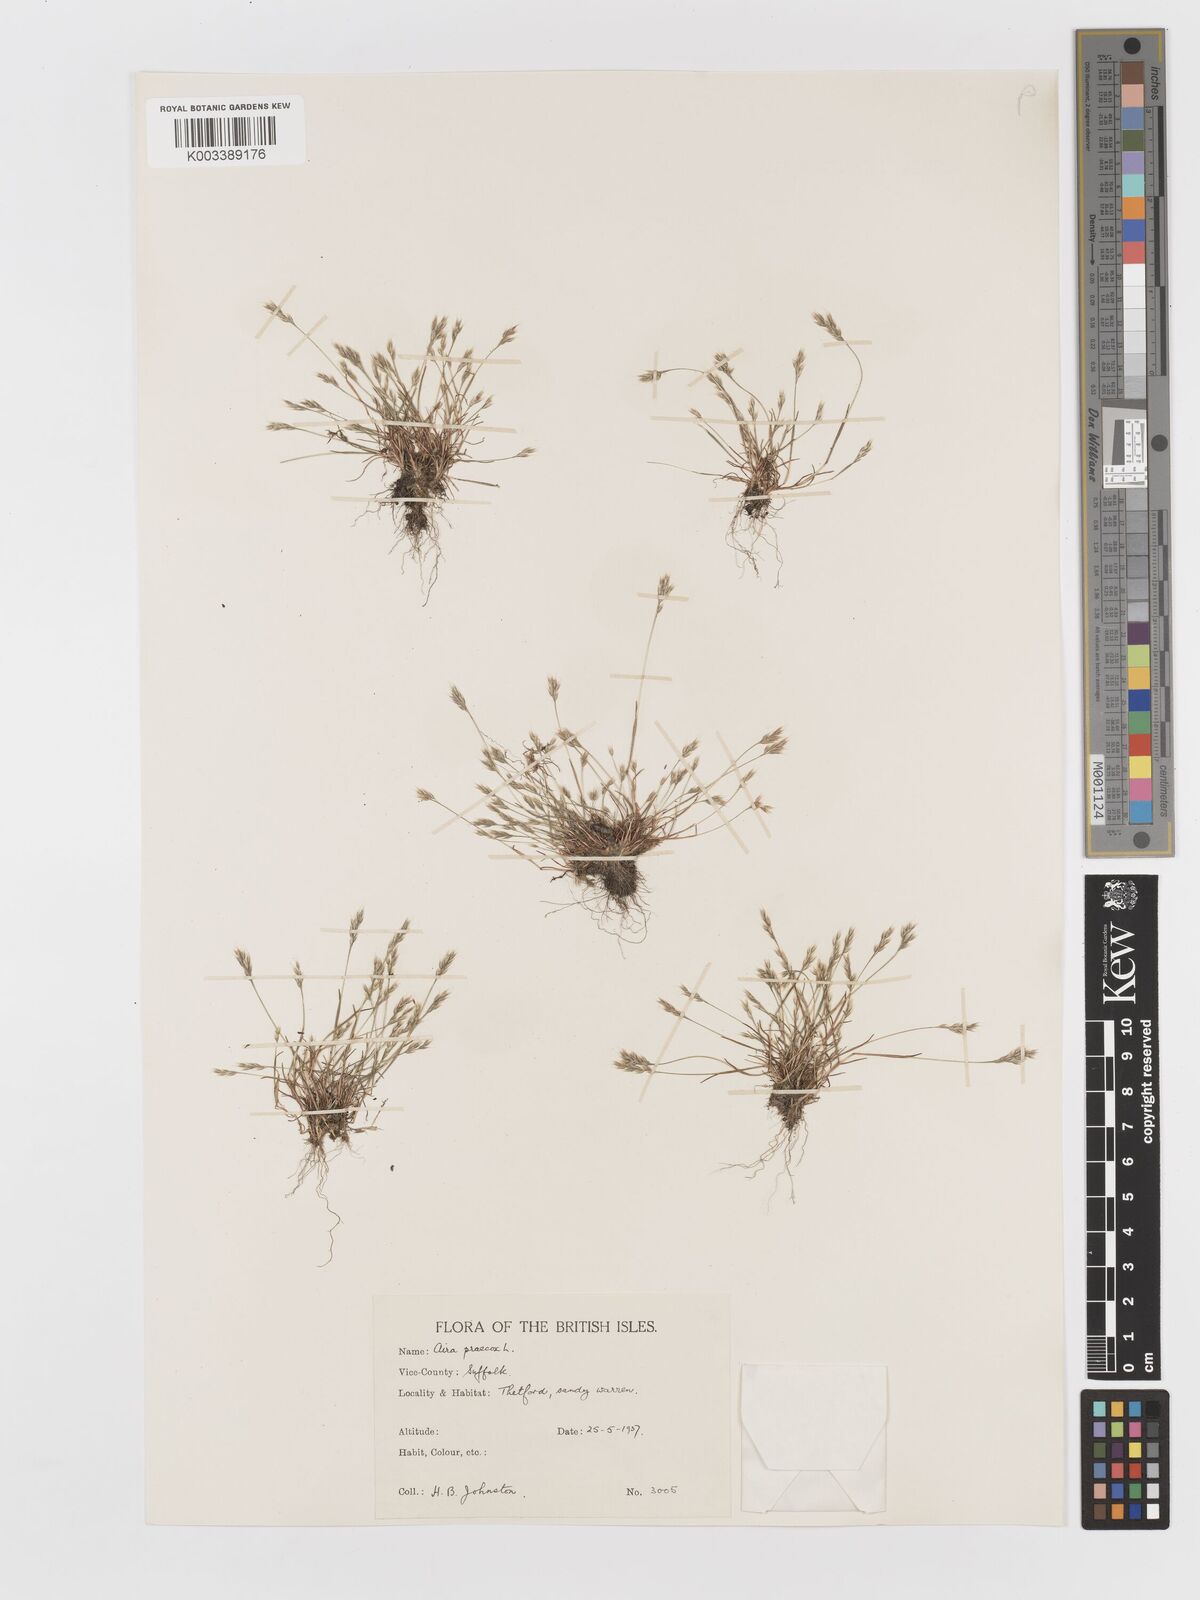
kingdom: Plantae
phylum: Tracheophyta
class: Liliopsida
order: Poales
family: Poaceae
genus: Aira
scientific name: Aira praecox
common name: Early hair-grass
